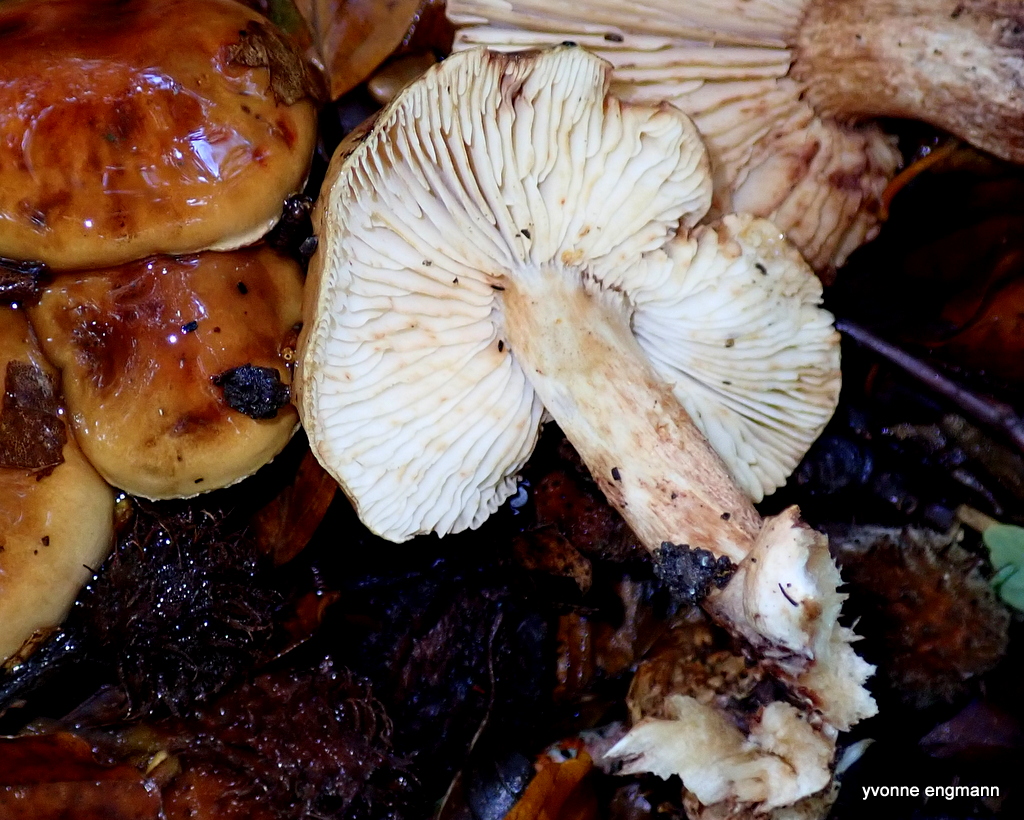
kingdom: Fungi
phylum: Basidiomycota
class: Agaricomycetes
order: Agaricales
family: Tricholomataceae
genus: Tricholoma
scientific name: Tricholoma ustale
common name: sveden ridderhat
